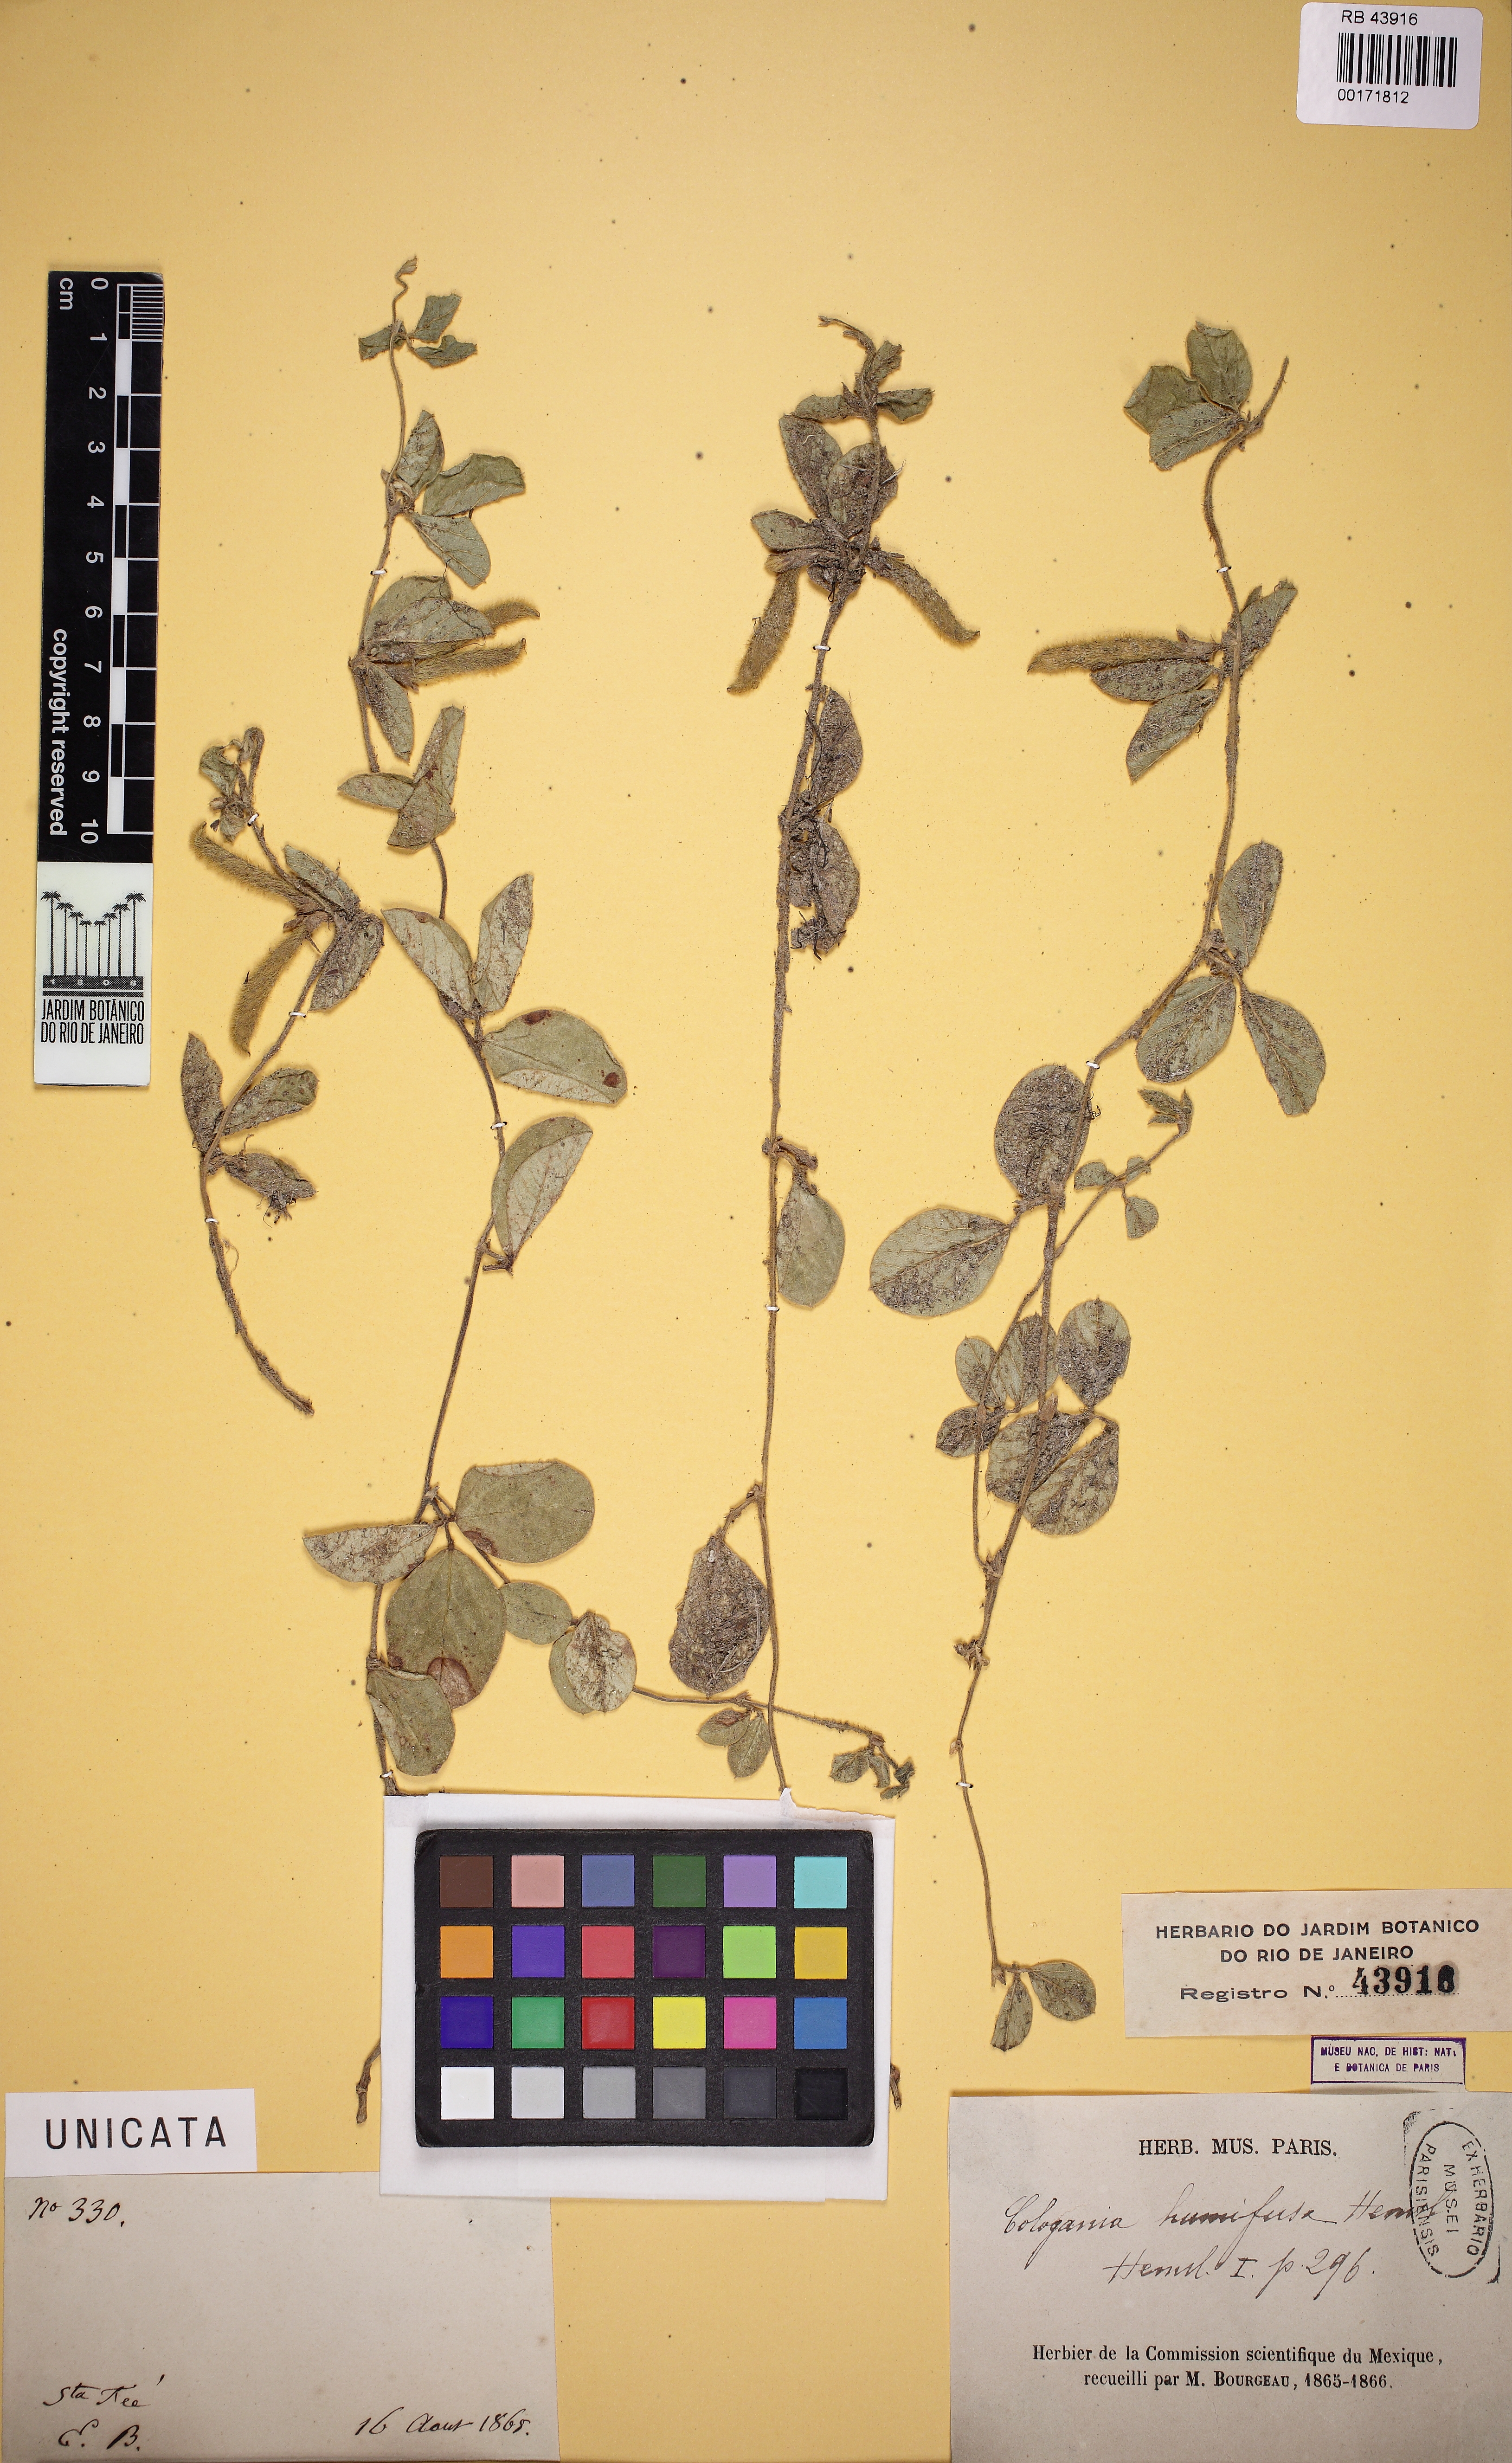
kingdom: Plantae
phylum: Tracheophyta
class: Magnoliopsida
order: Fabales
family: Fabaceae
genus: Cologania
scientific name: Cologania obovata
